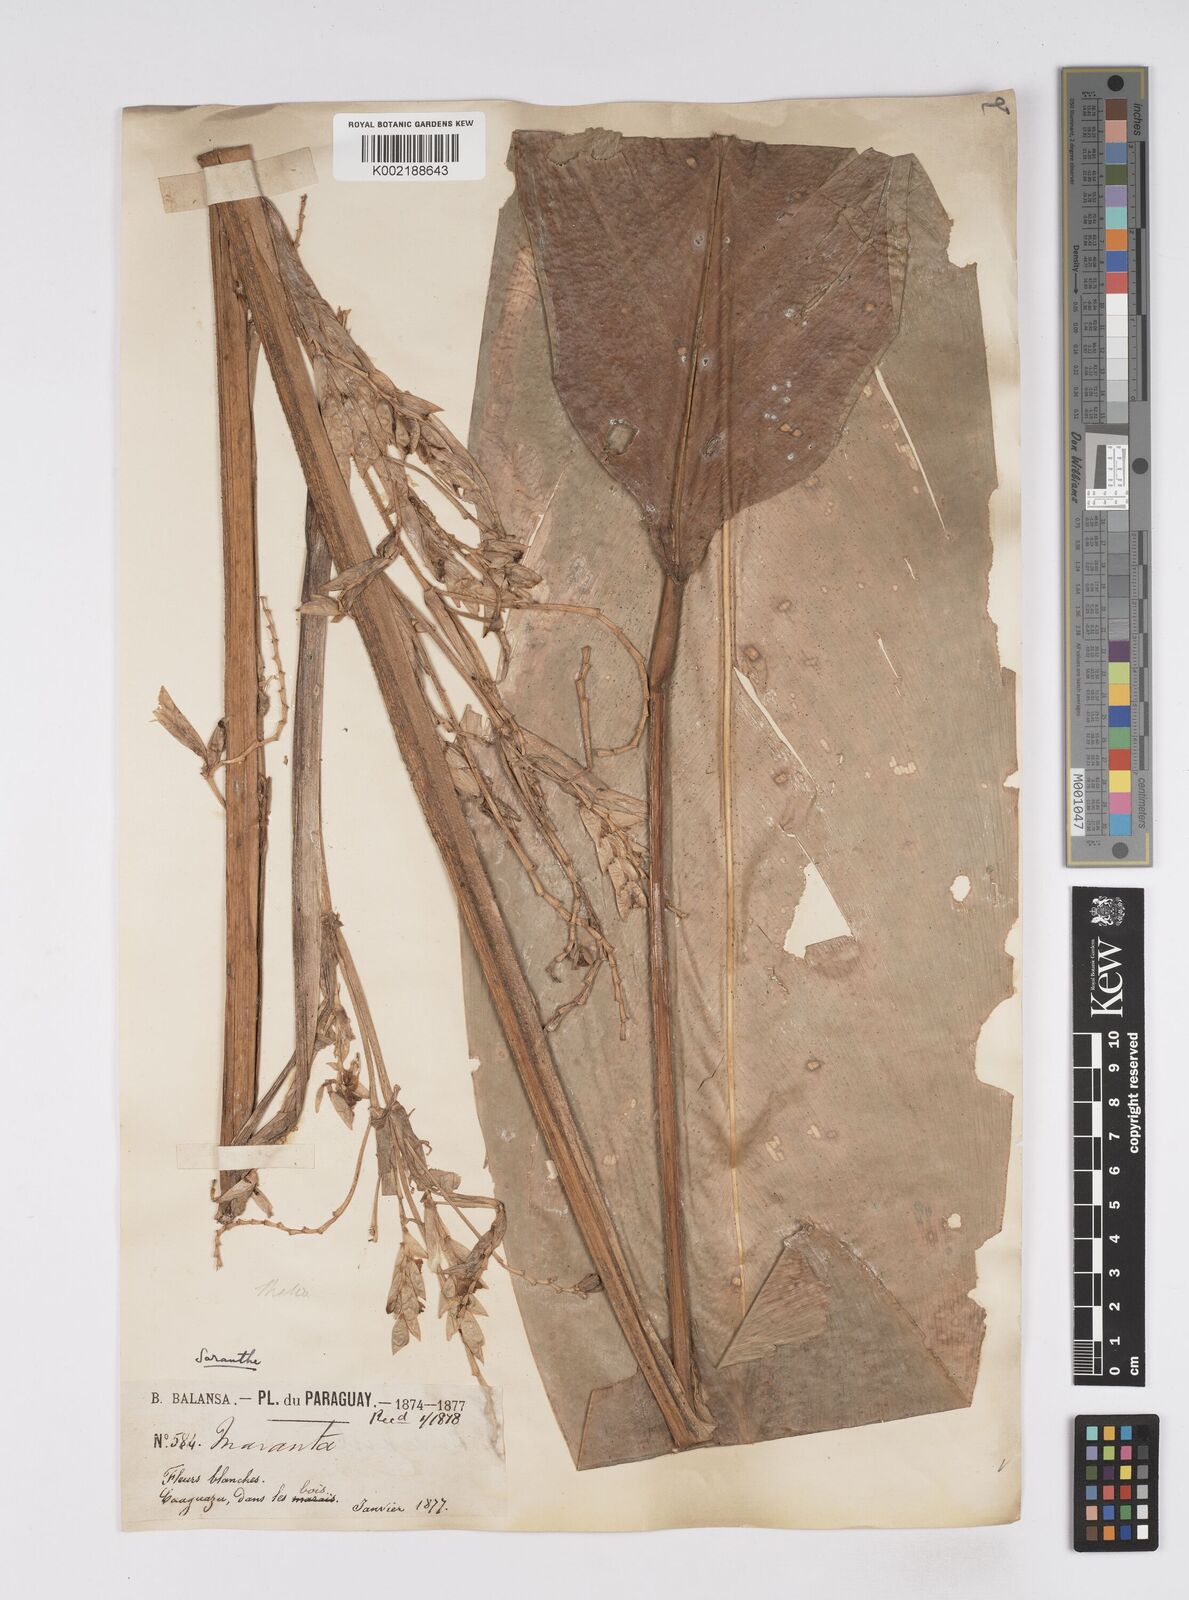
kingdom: Plantae
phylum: Tracheophyta
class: Liliopsida
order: Zingiberales
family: Marantaceae
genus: Saranthe
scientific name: Saranthe eichleri
